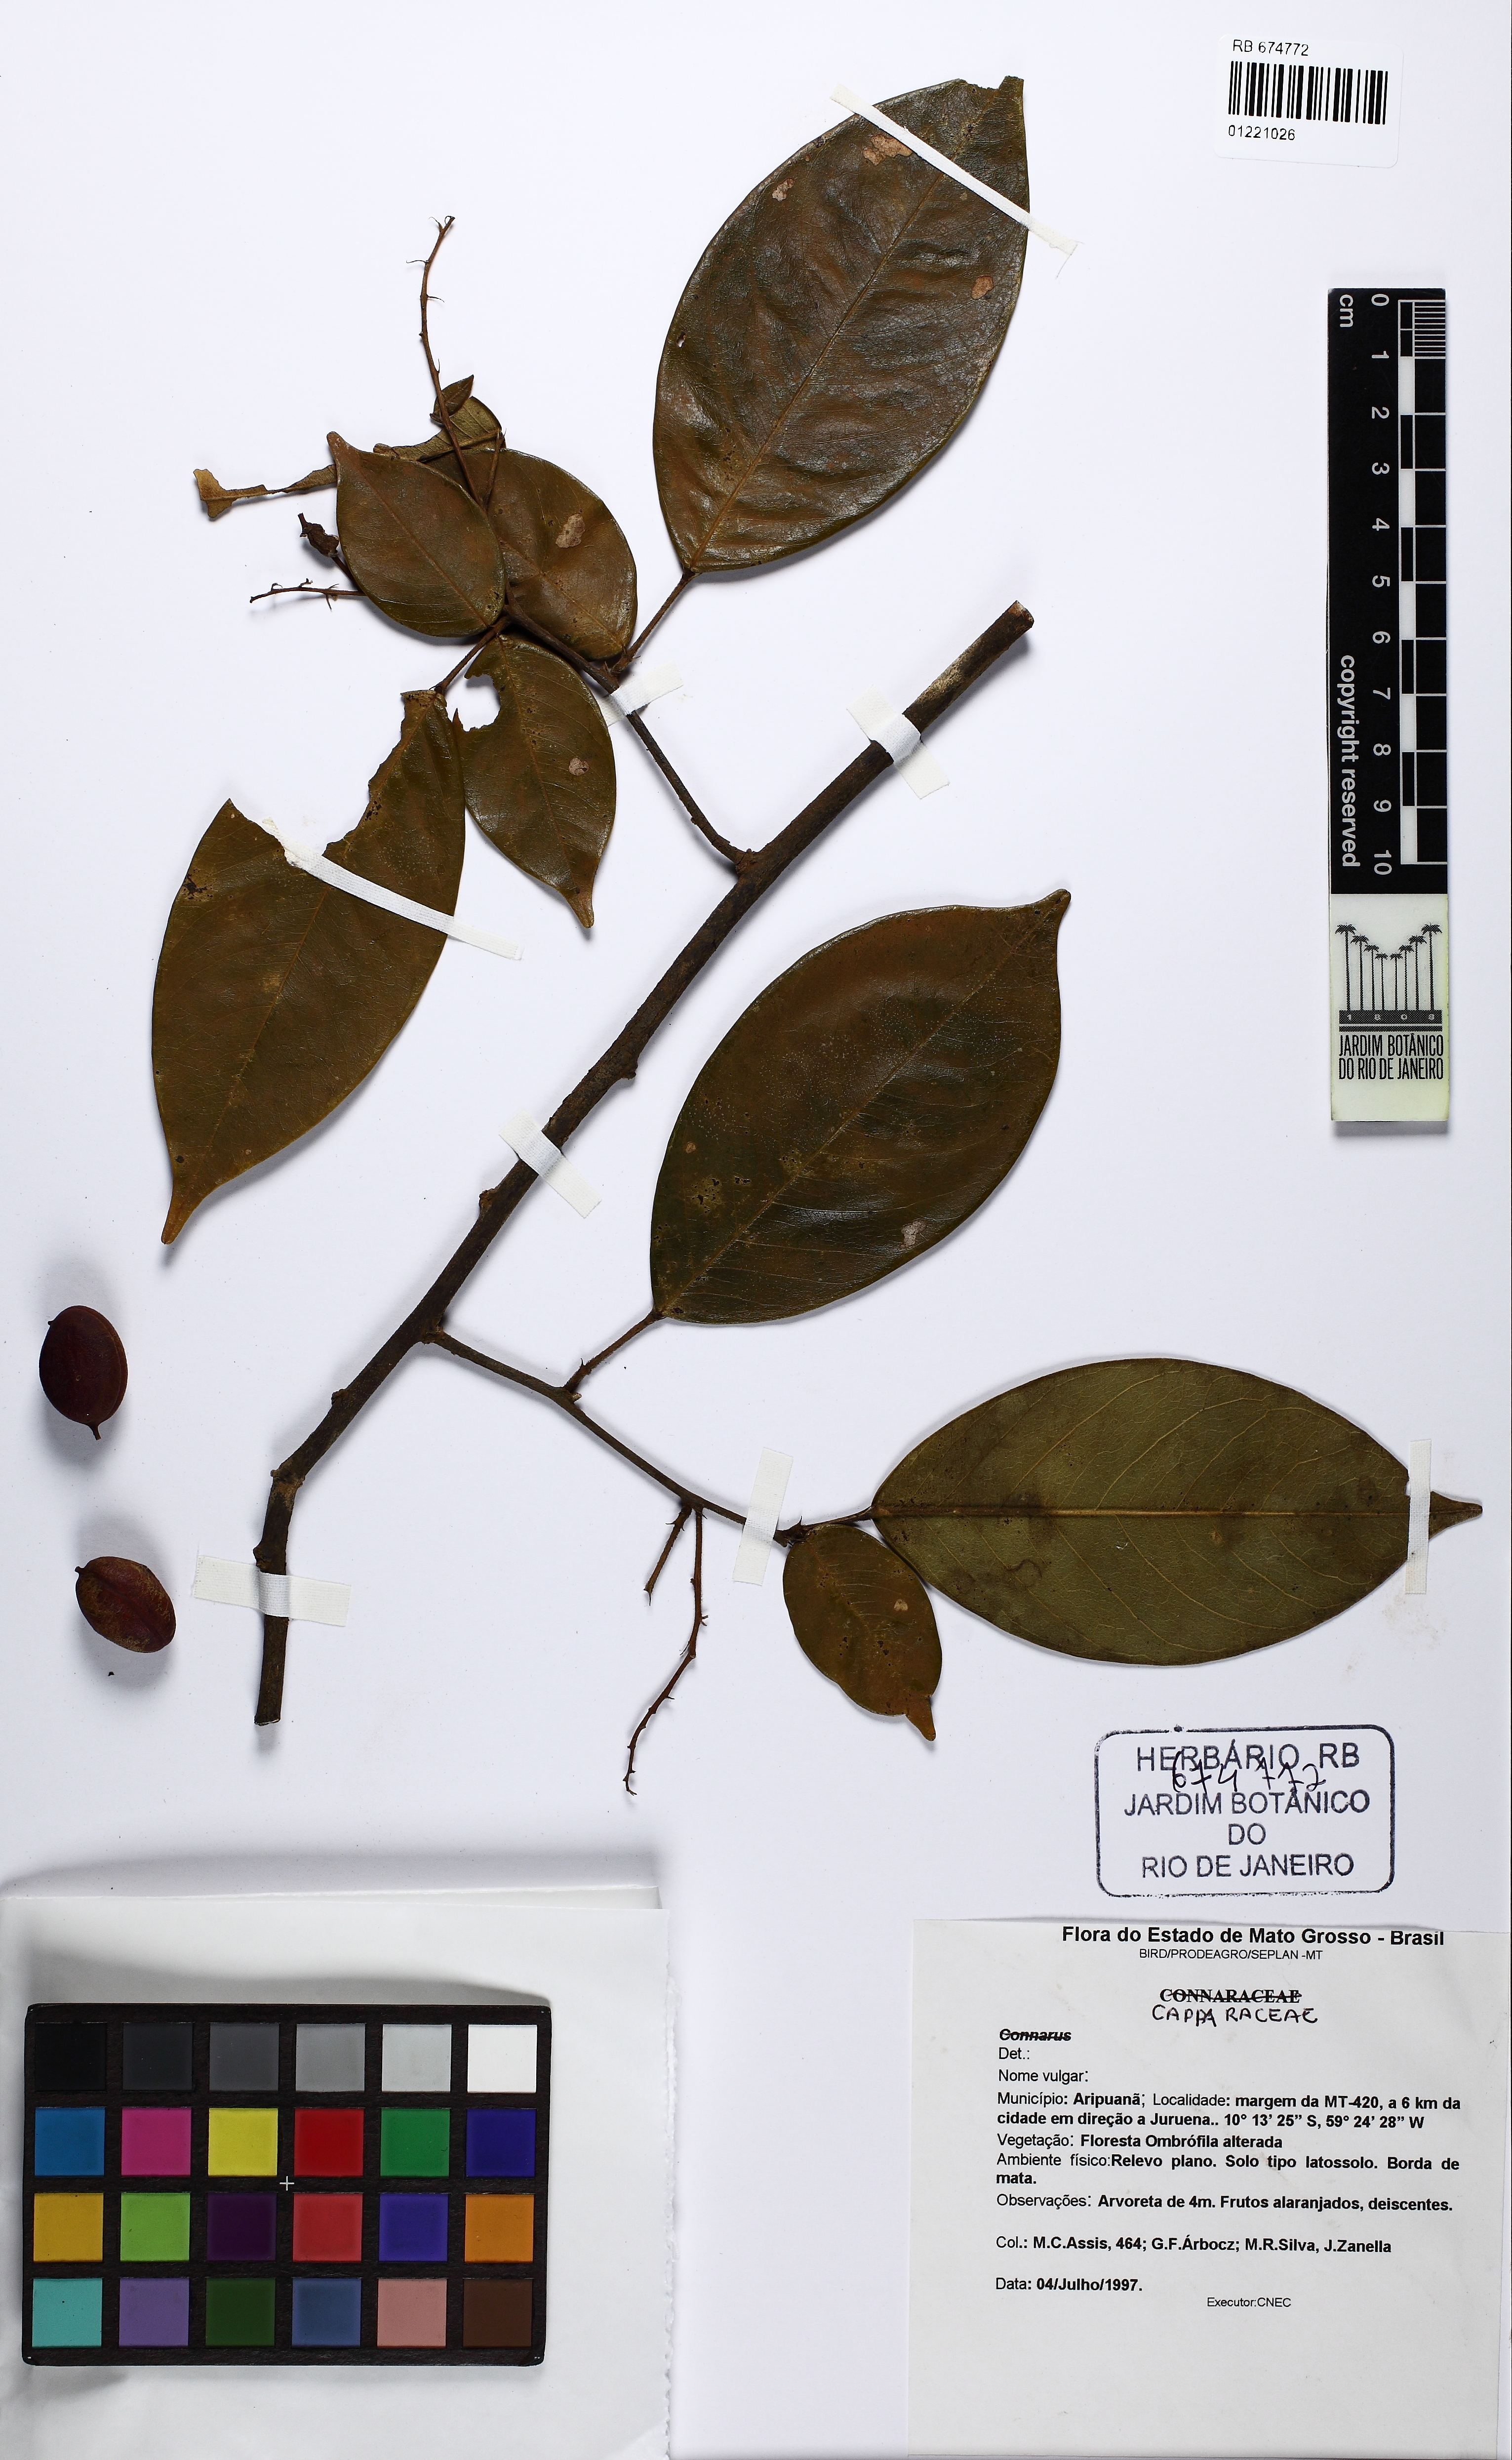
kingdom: Plantae
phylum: Tracheophyta
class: Magnoliopsida
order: Fabales
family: Fabaceae
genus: Swartzia
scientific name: Swartzia arborescens
